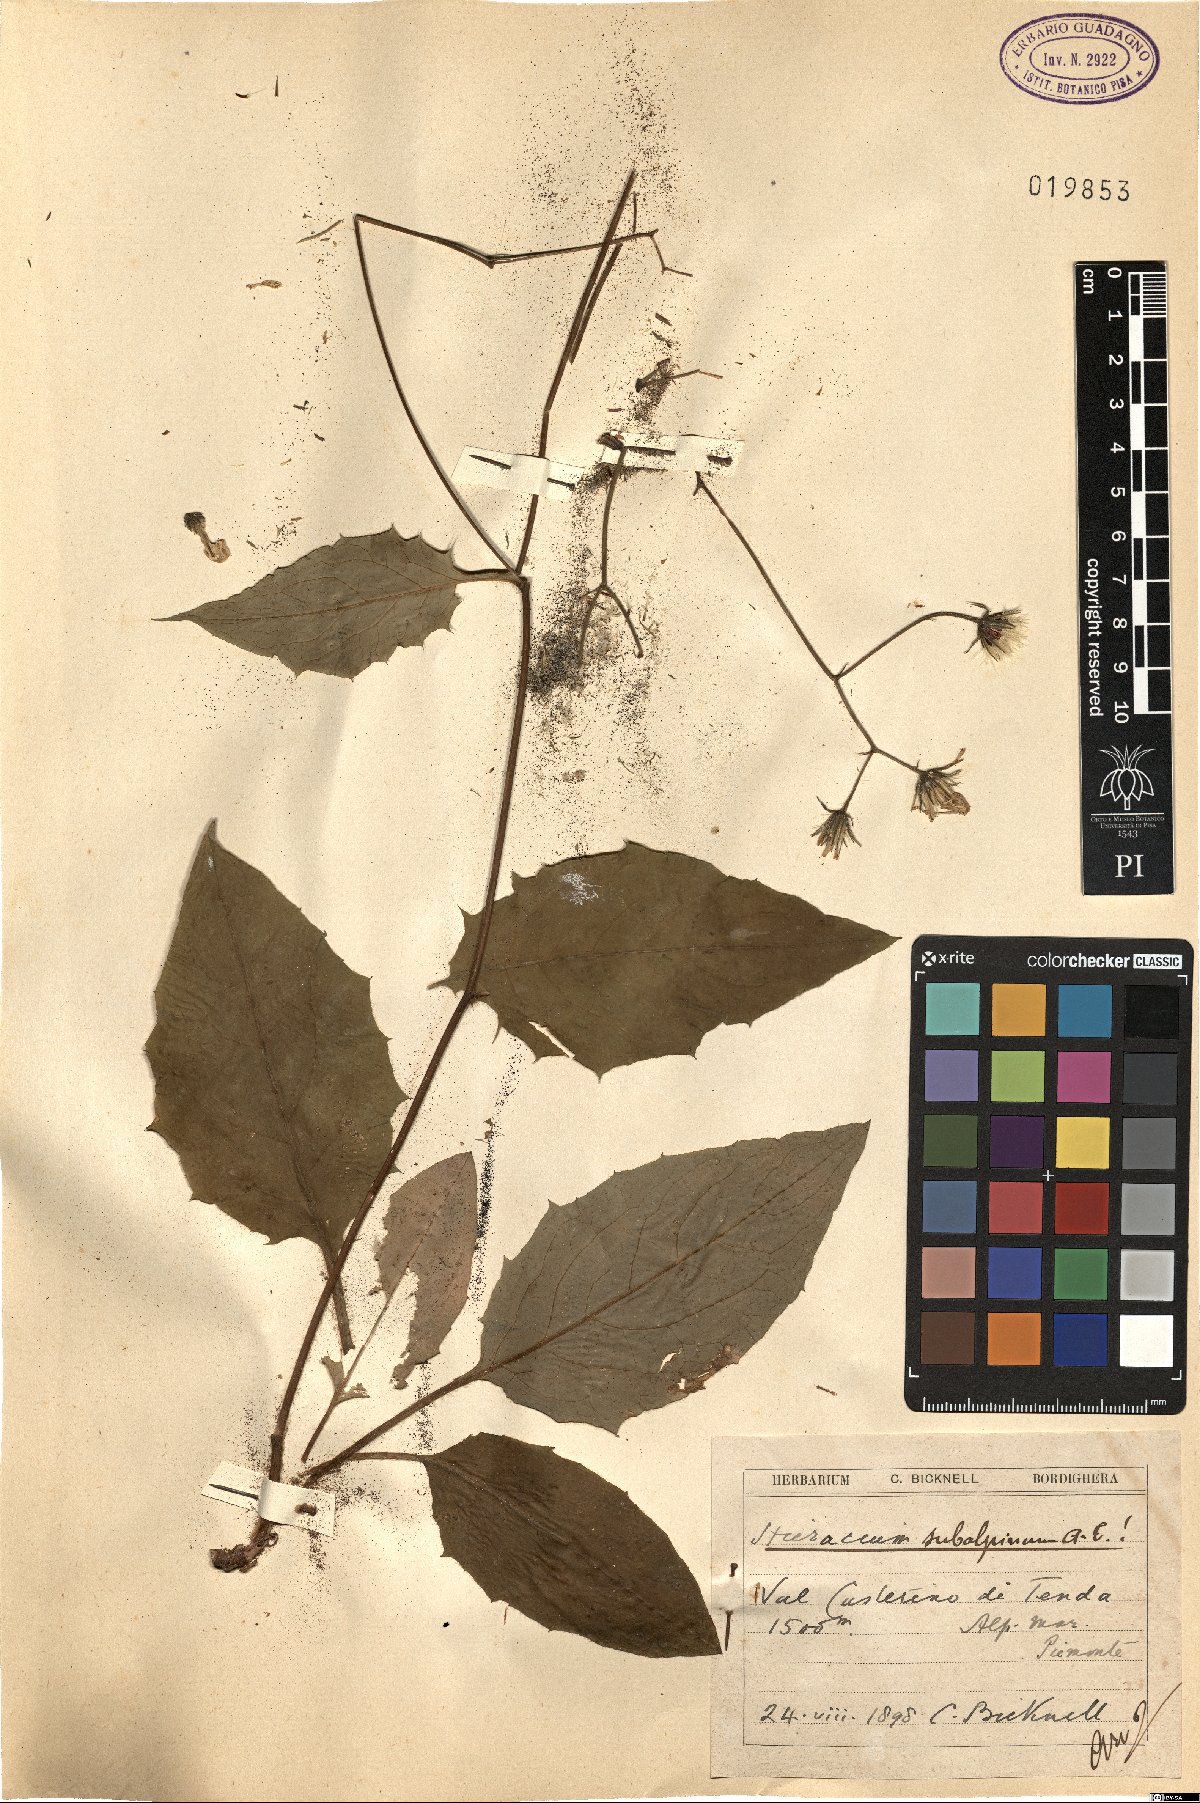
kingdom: Plantae
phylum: Tracheophyta
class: Magnoliopsida
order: Asterales
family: Asteraceae
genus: Hieracium
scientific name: Hieracium umbrosum
